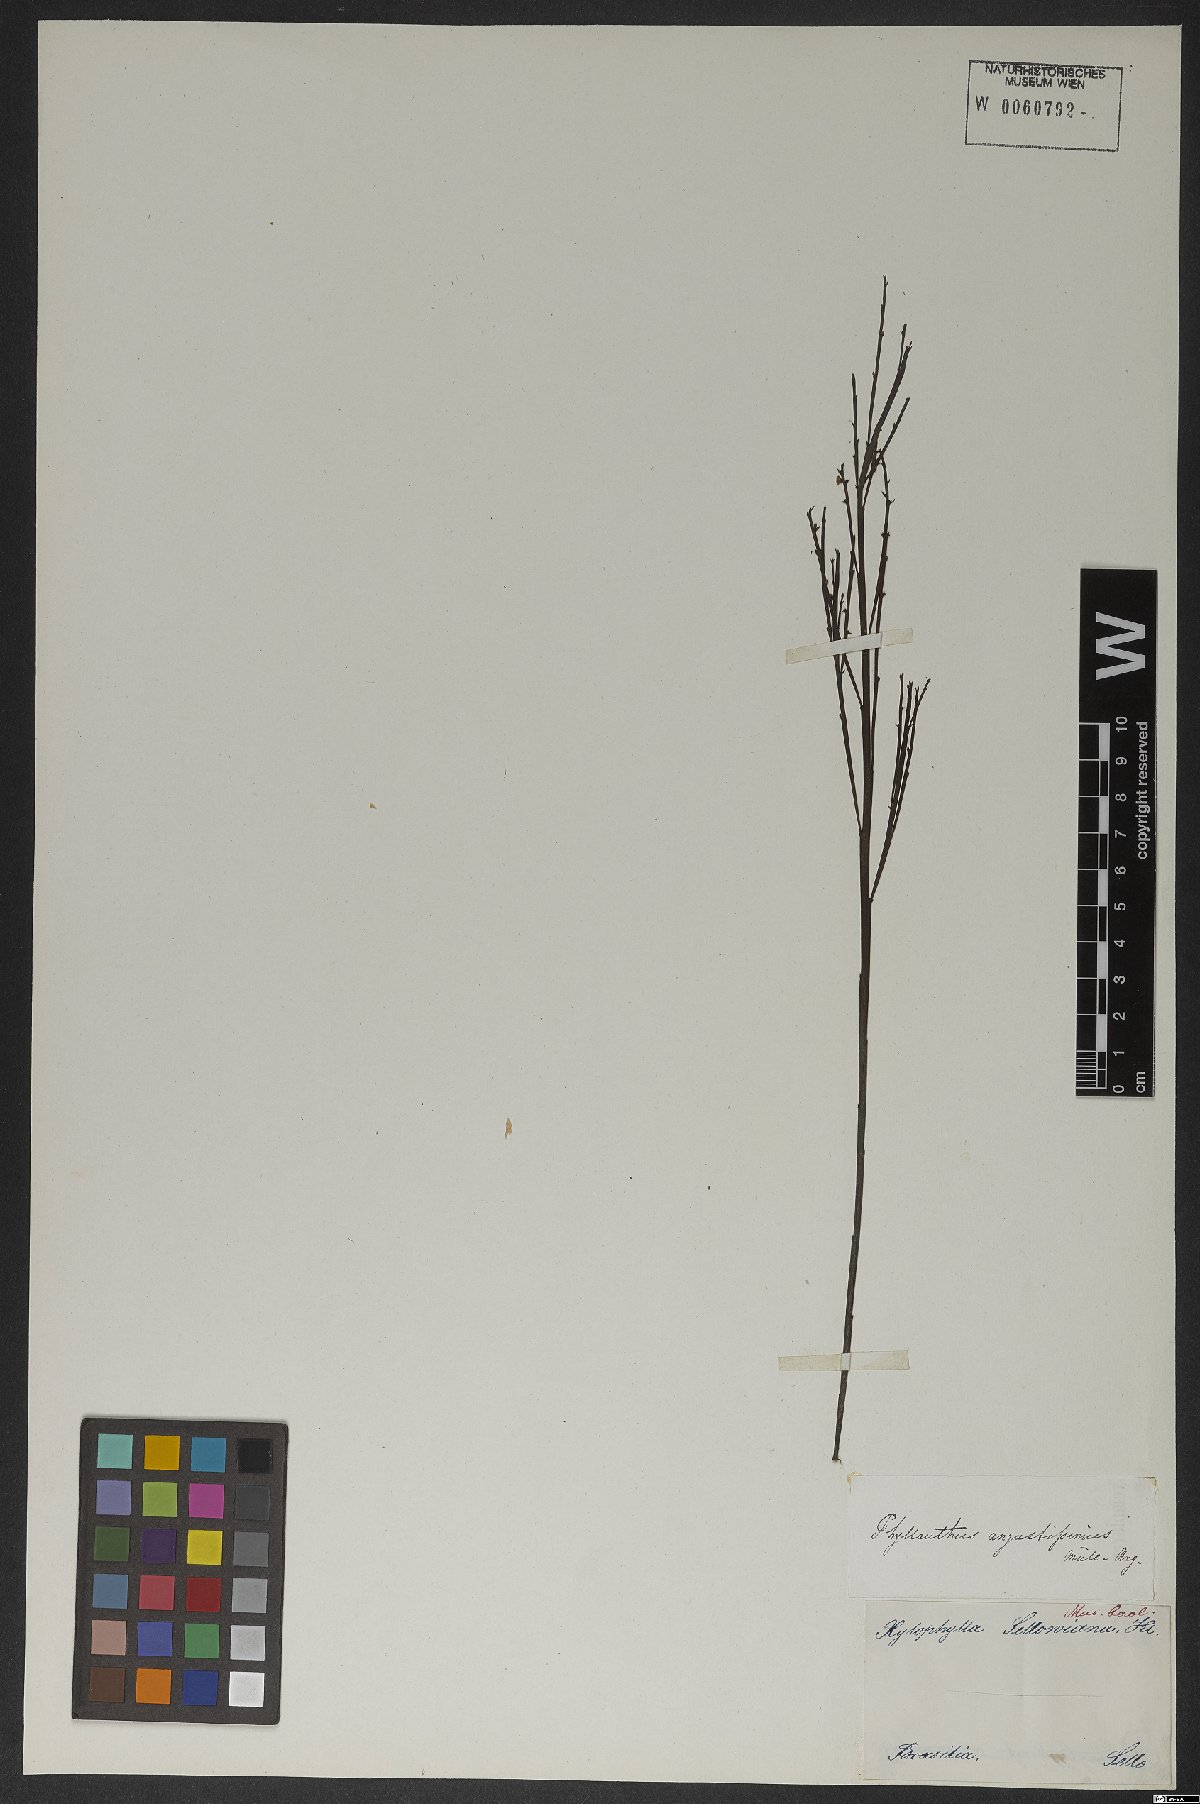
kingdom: Plantae
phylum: Tracheophyta
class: Magnoliopsida
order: Malpighiales
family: Phyllanthaceae
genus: Phyllanthus
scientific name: Phyllanthus angustissimus
